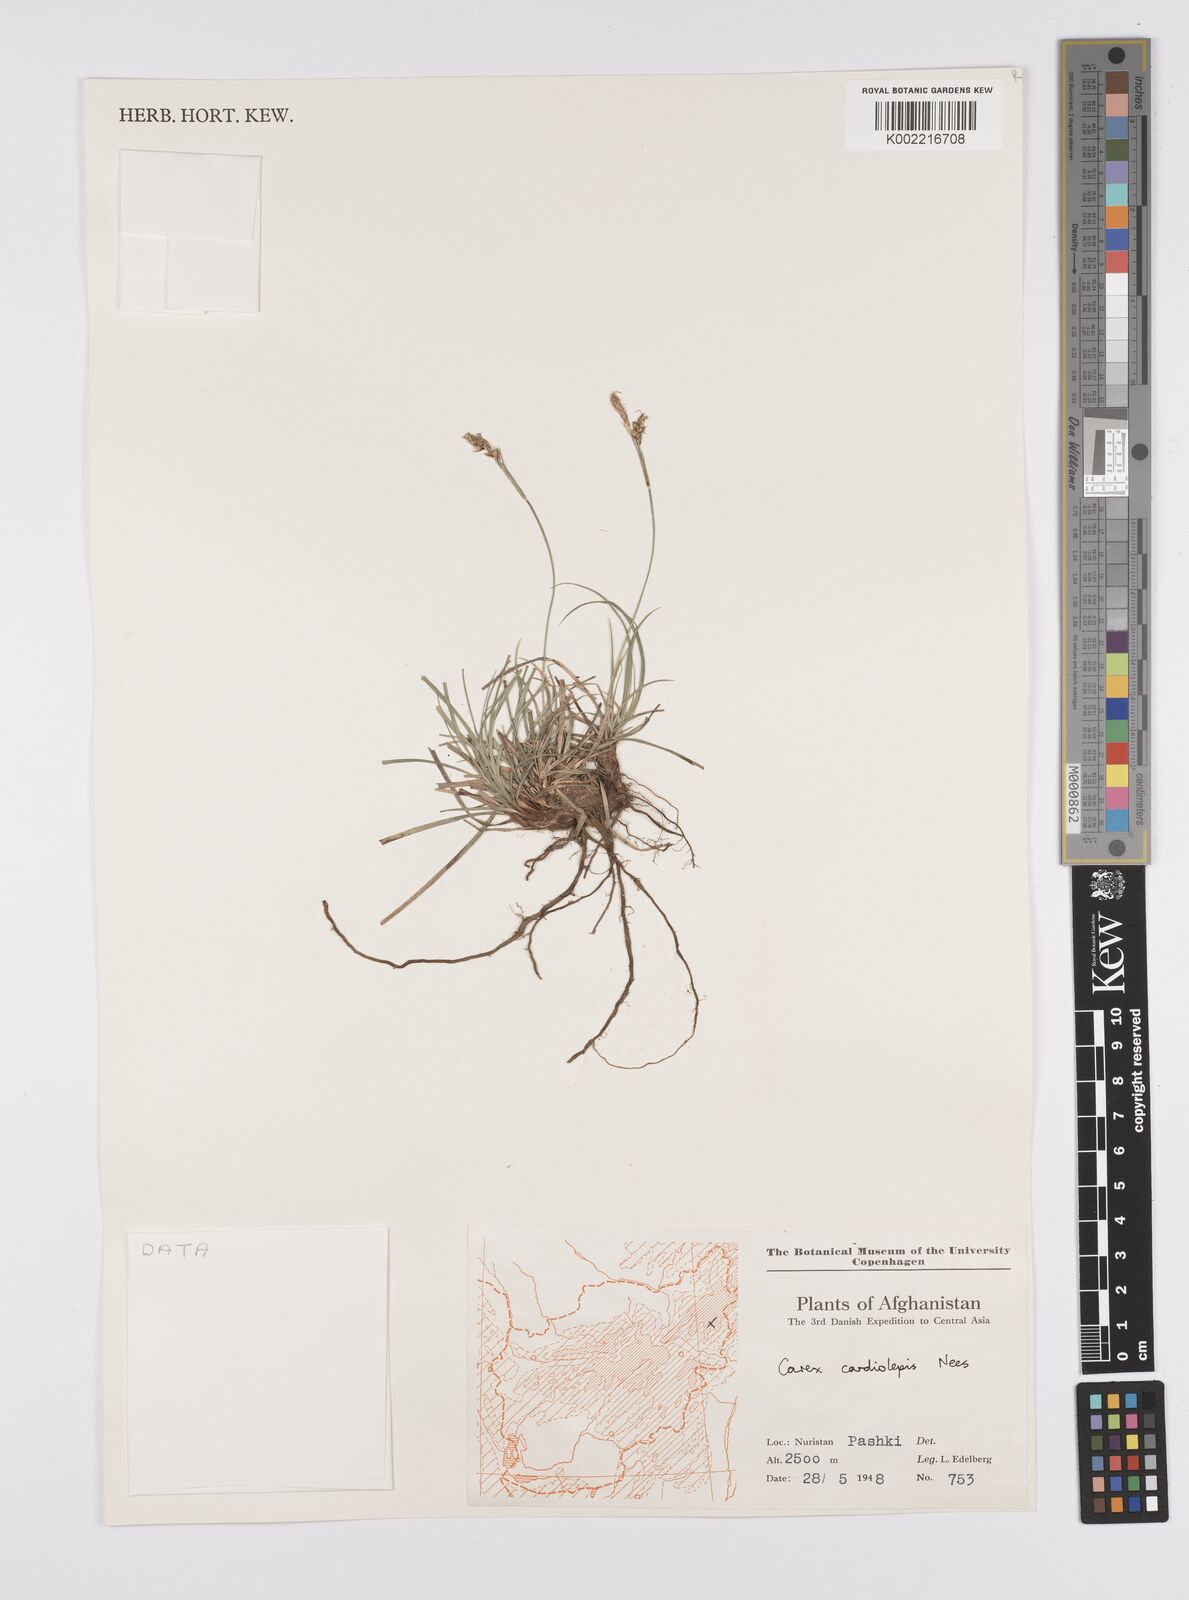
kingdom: Plantae
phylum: Tracheophyta
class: Liliopsida
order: Poales
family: Cyperaceae
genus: Carex
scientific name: Carex cardiolepis
